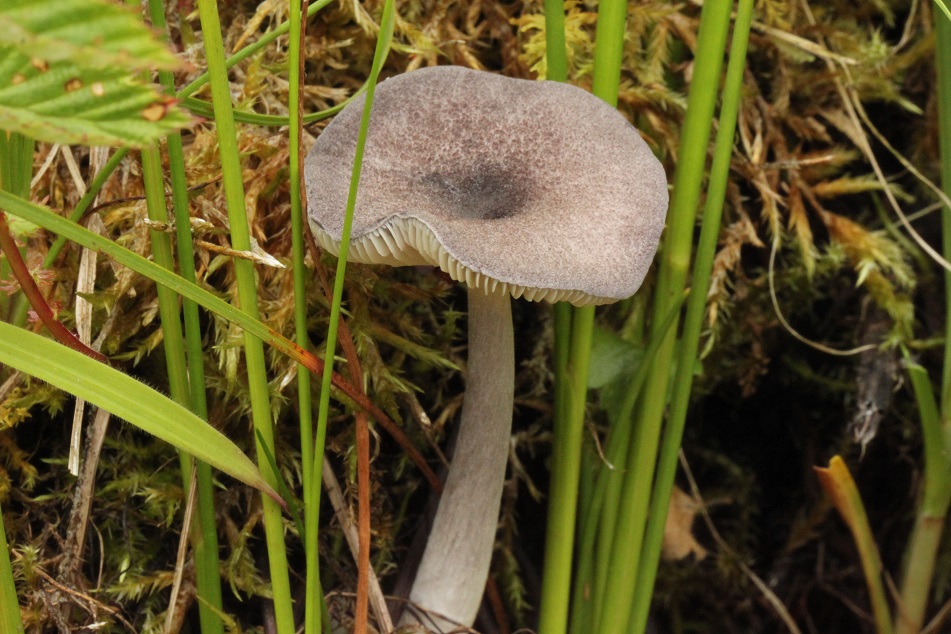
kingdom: Fungi
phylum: Basidiomycota
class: Agaricomycetes
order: Agaricales
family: Entolomataceae
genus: Entoloma
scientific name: Entoloma mougeotii
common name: violetgrå rødblad
